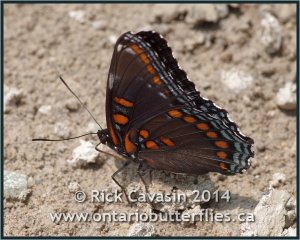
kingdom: Animalia
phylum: Arthropoda
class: Insecta
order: Lepidoptera
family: Nymphalidae
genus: Limenitis
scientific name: Limenitis astyanax
